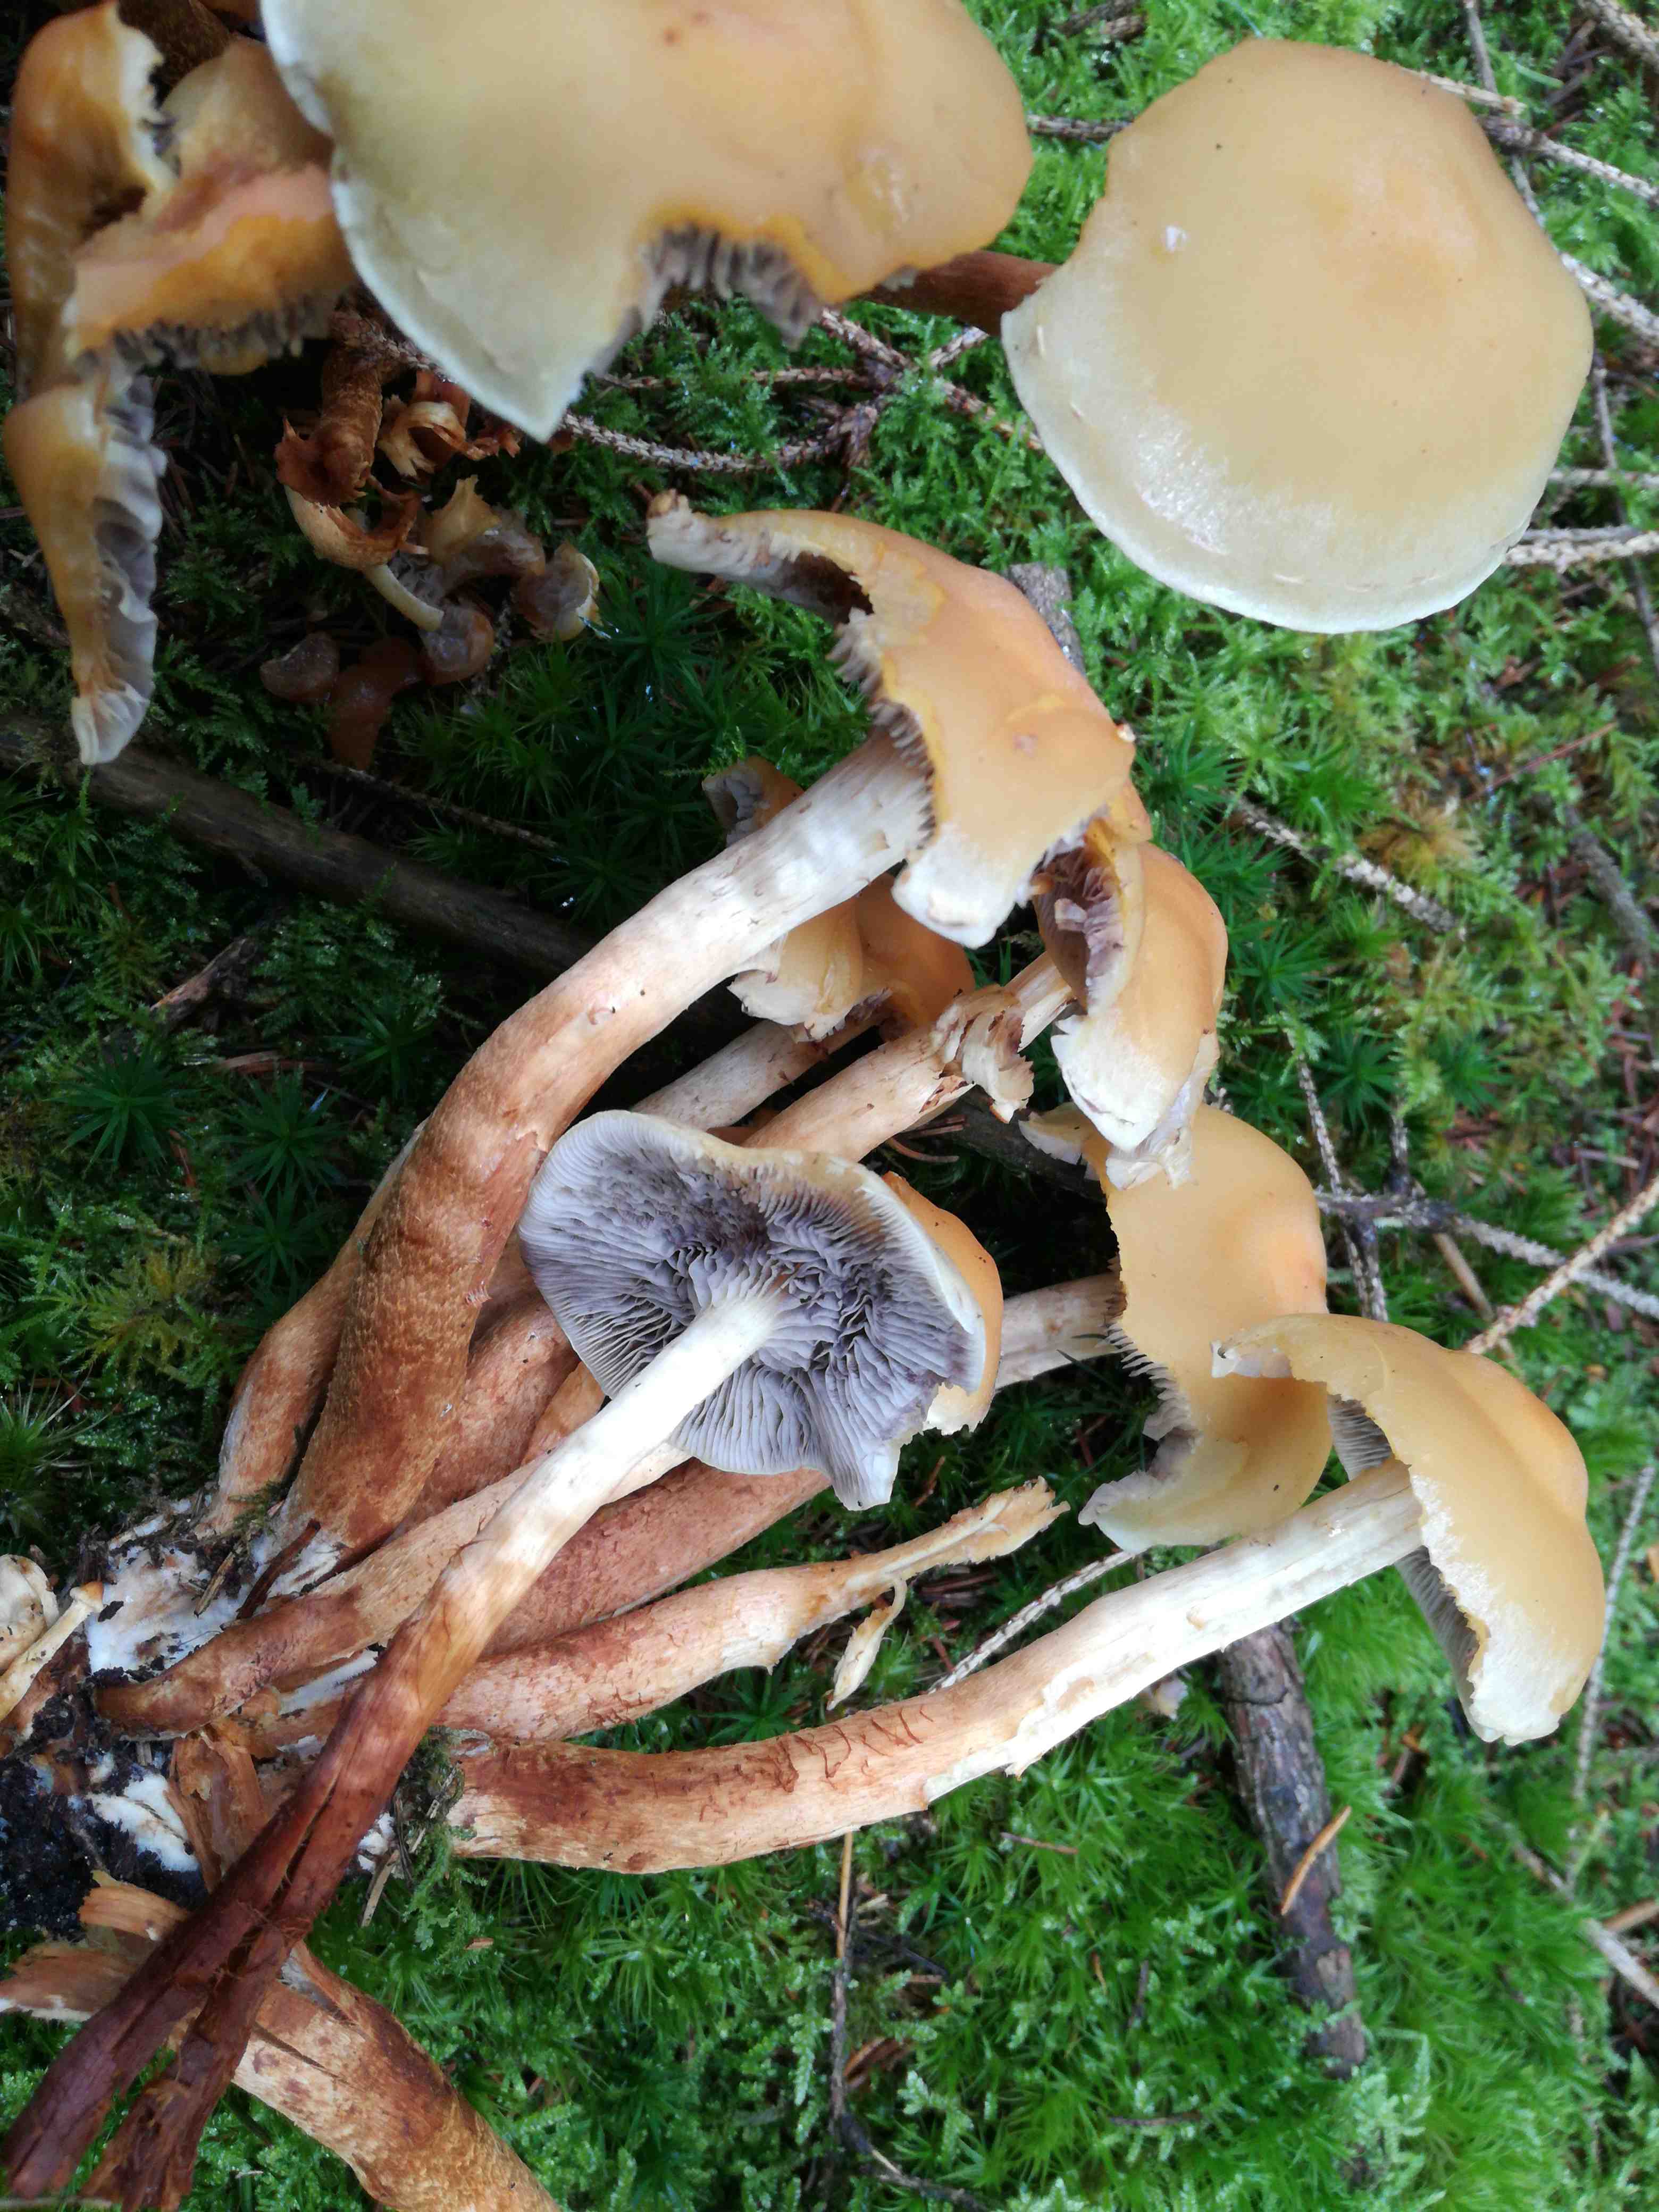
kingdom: Fungi
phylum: Basidiomycota
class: Agaricomycetes
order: Agaricales
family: Strophariaceae
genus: Hypholoma
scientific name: Hypholoma capnoides
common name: gran-svovlhat
